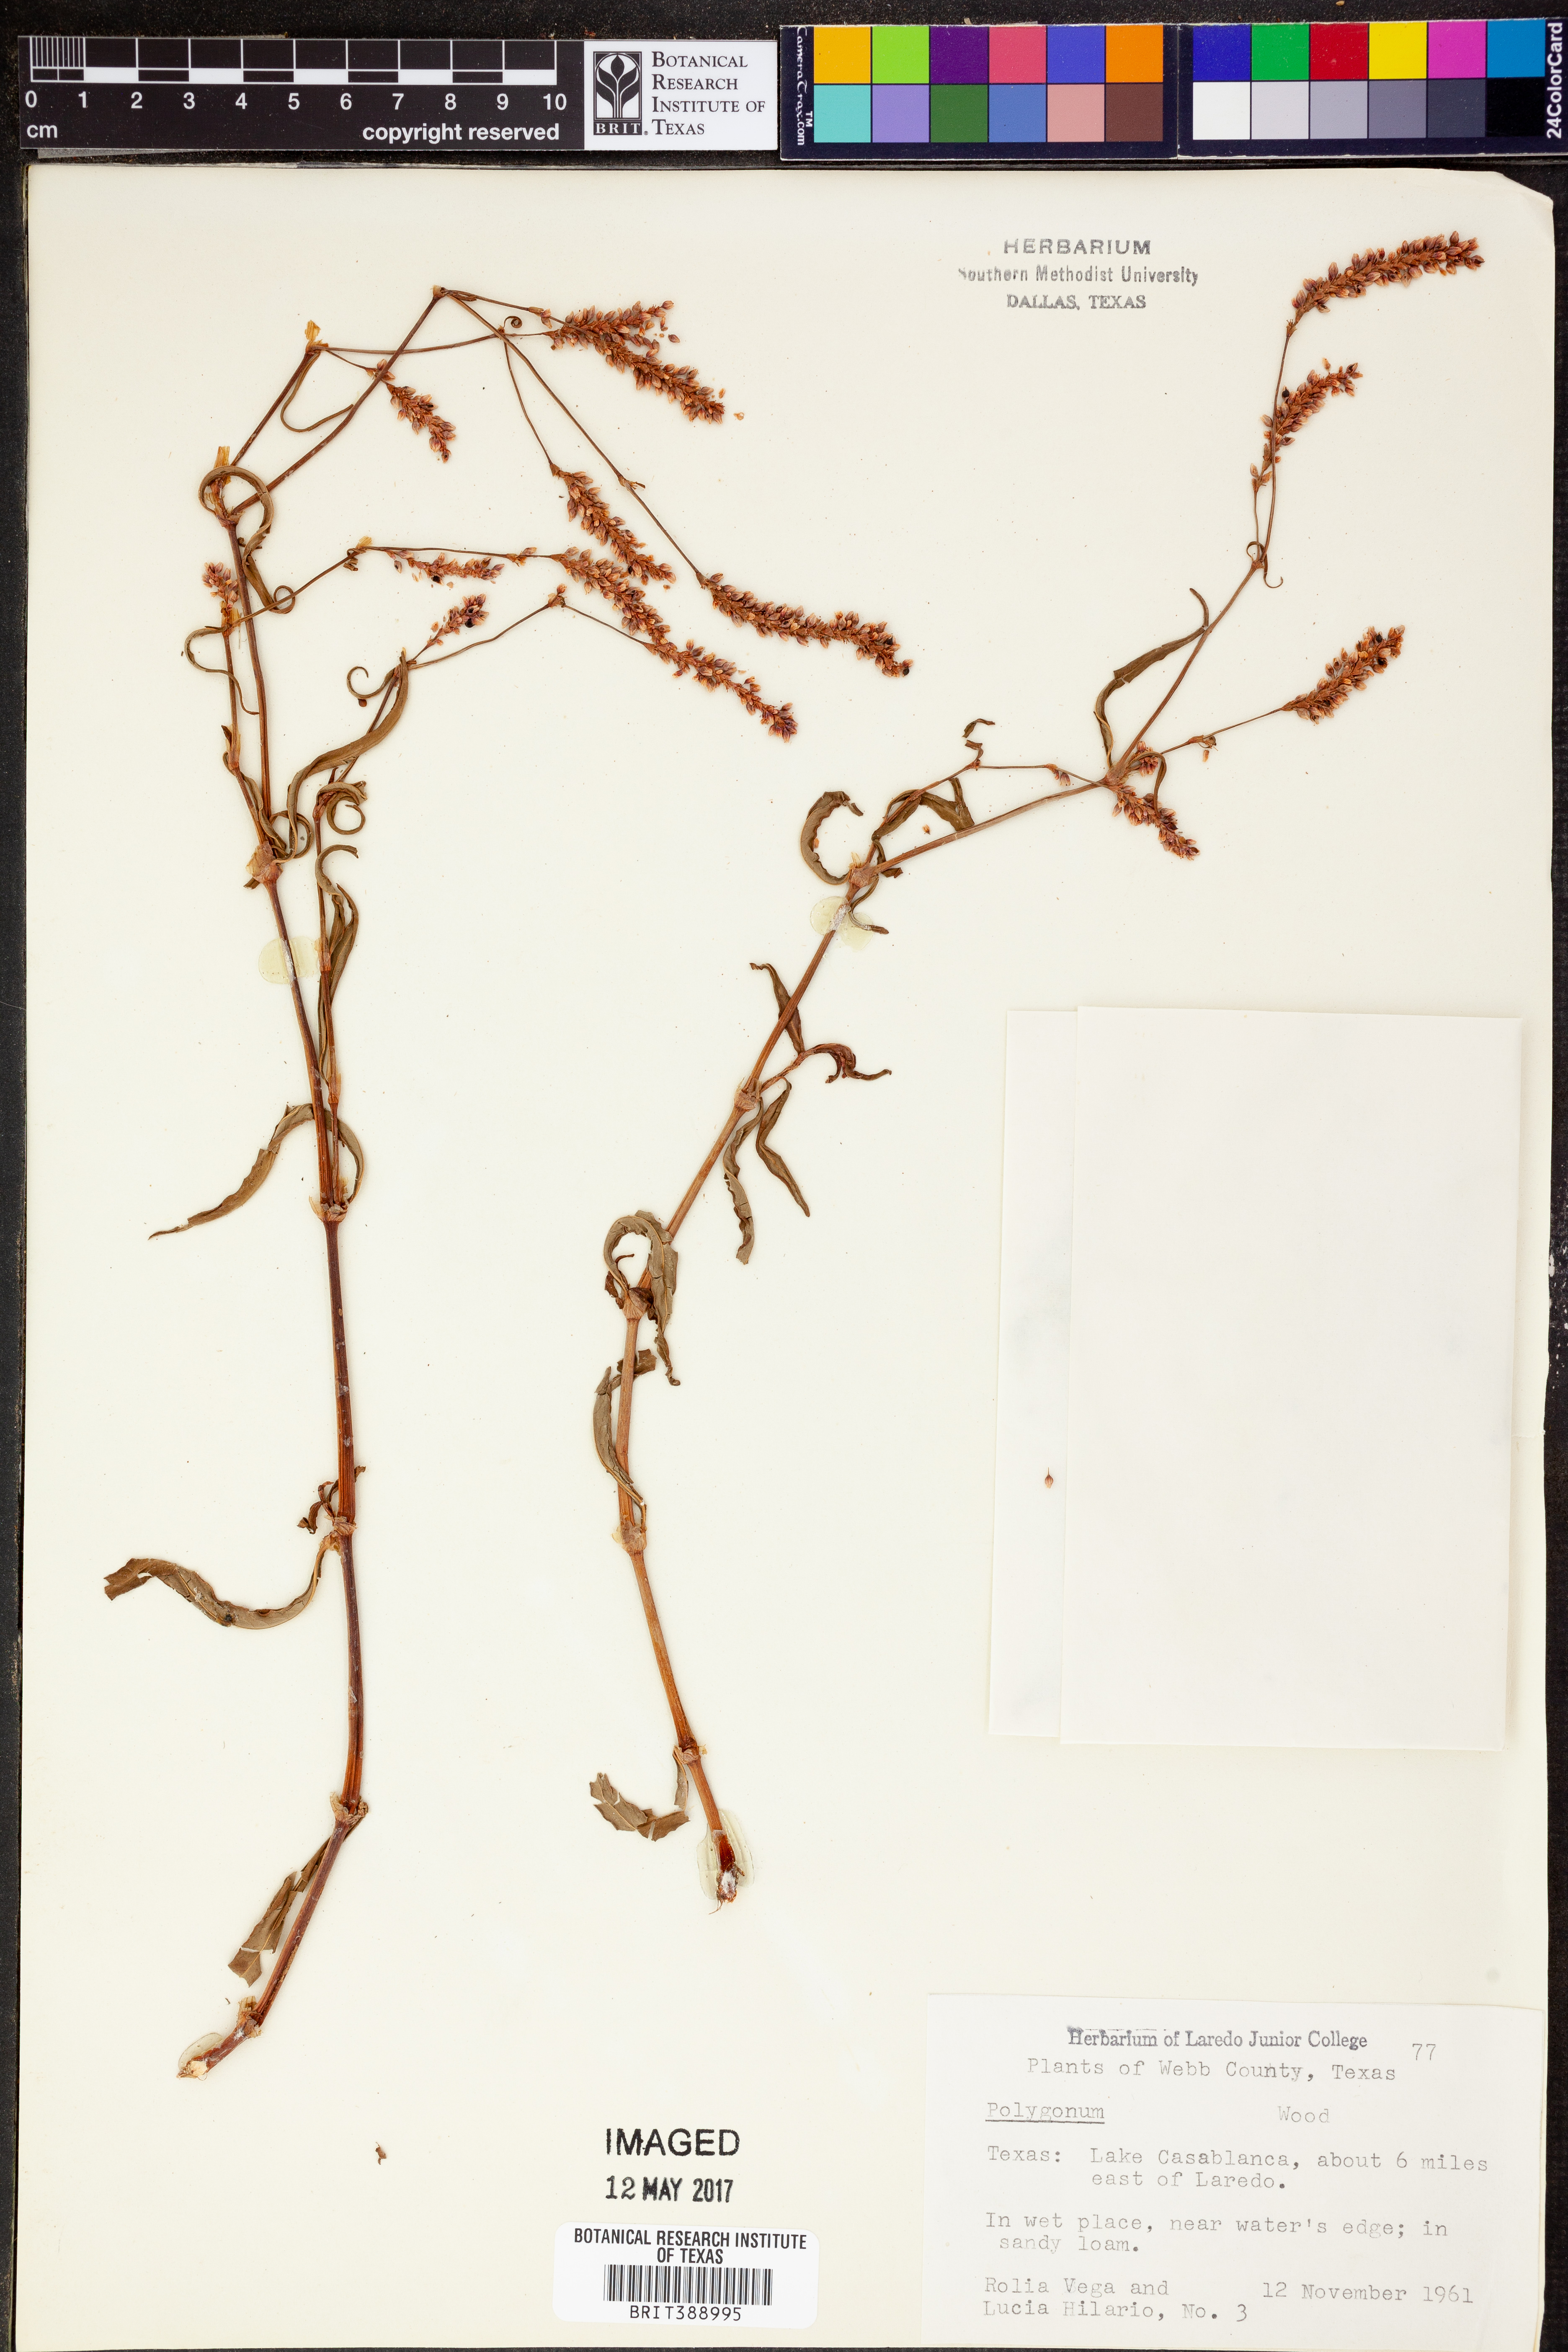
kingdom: Plantae
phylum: Tracheophyta
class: Magnoliopsida
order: Caryophyllales
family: Polygonaceae
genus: Polygonum
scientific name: Polygonum
